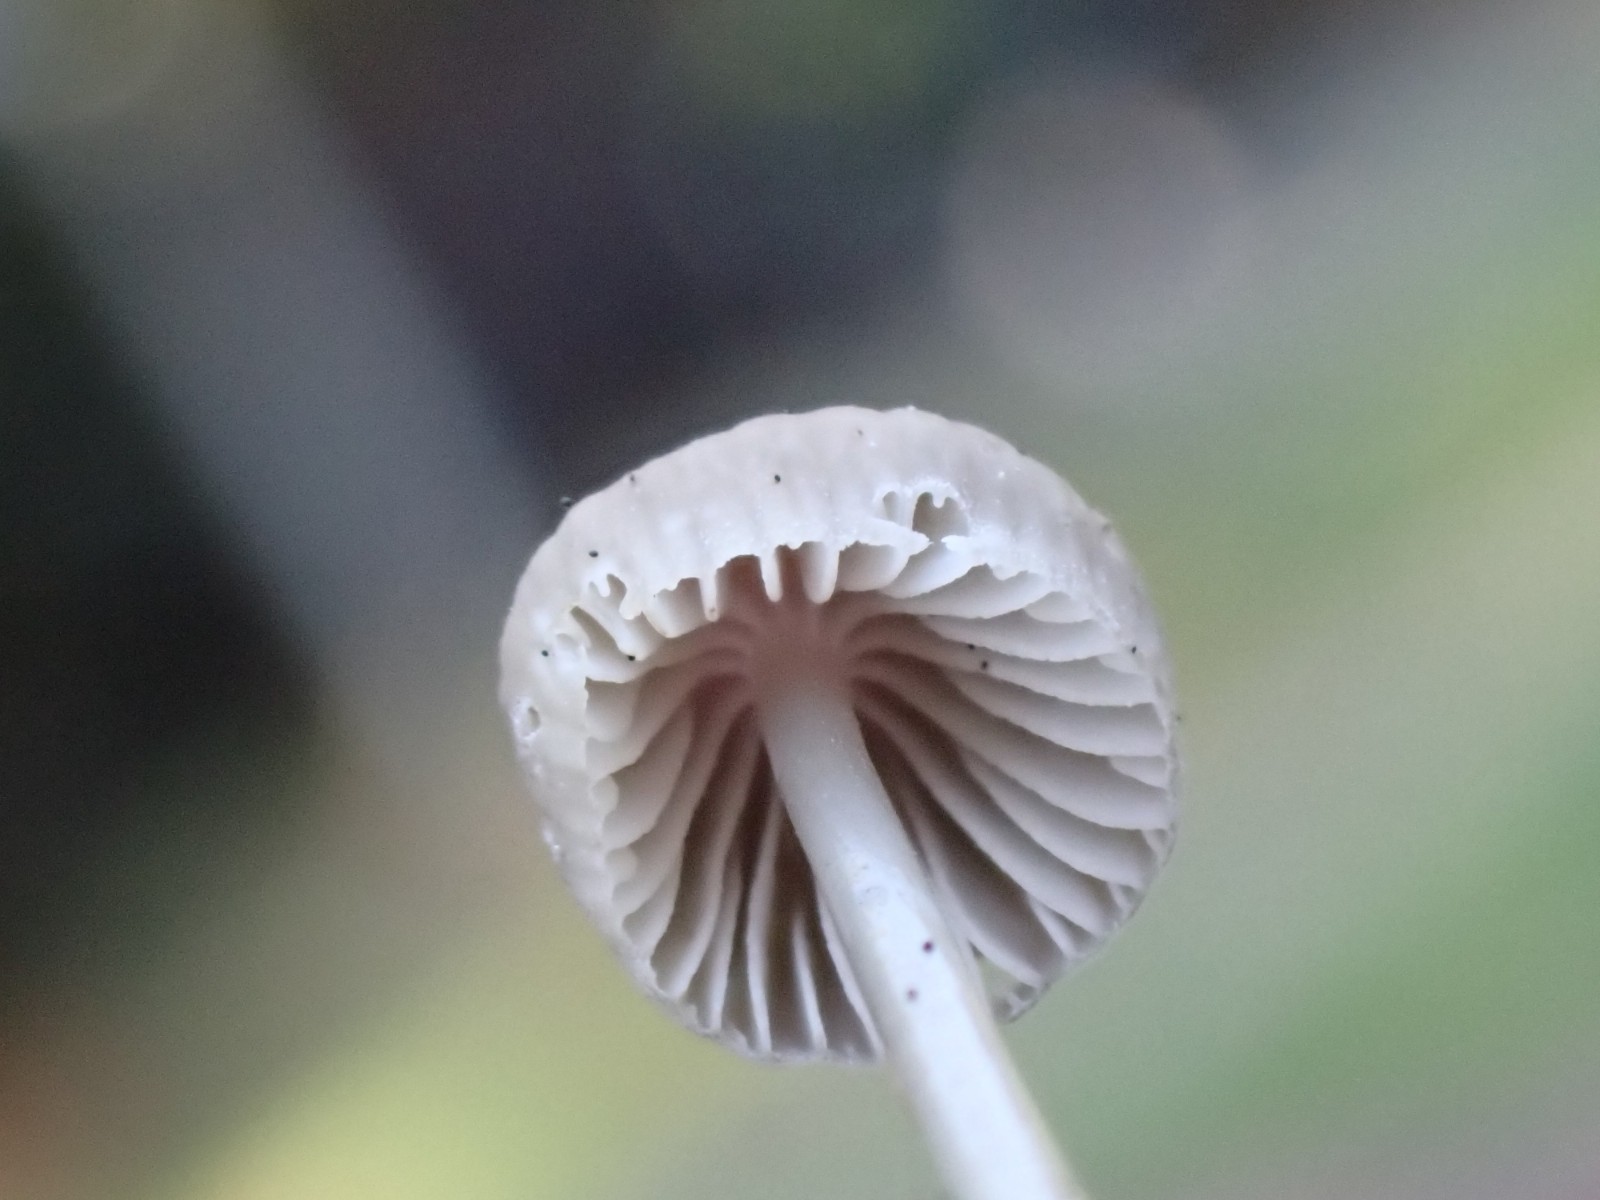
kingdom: Fungi
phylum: Basidiomycota
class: Agaricomycetes
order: Agaricales
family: Mycenaceae
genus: Mycena
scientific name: Mycena clavicularis
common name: fyrre-huesvamp
